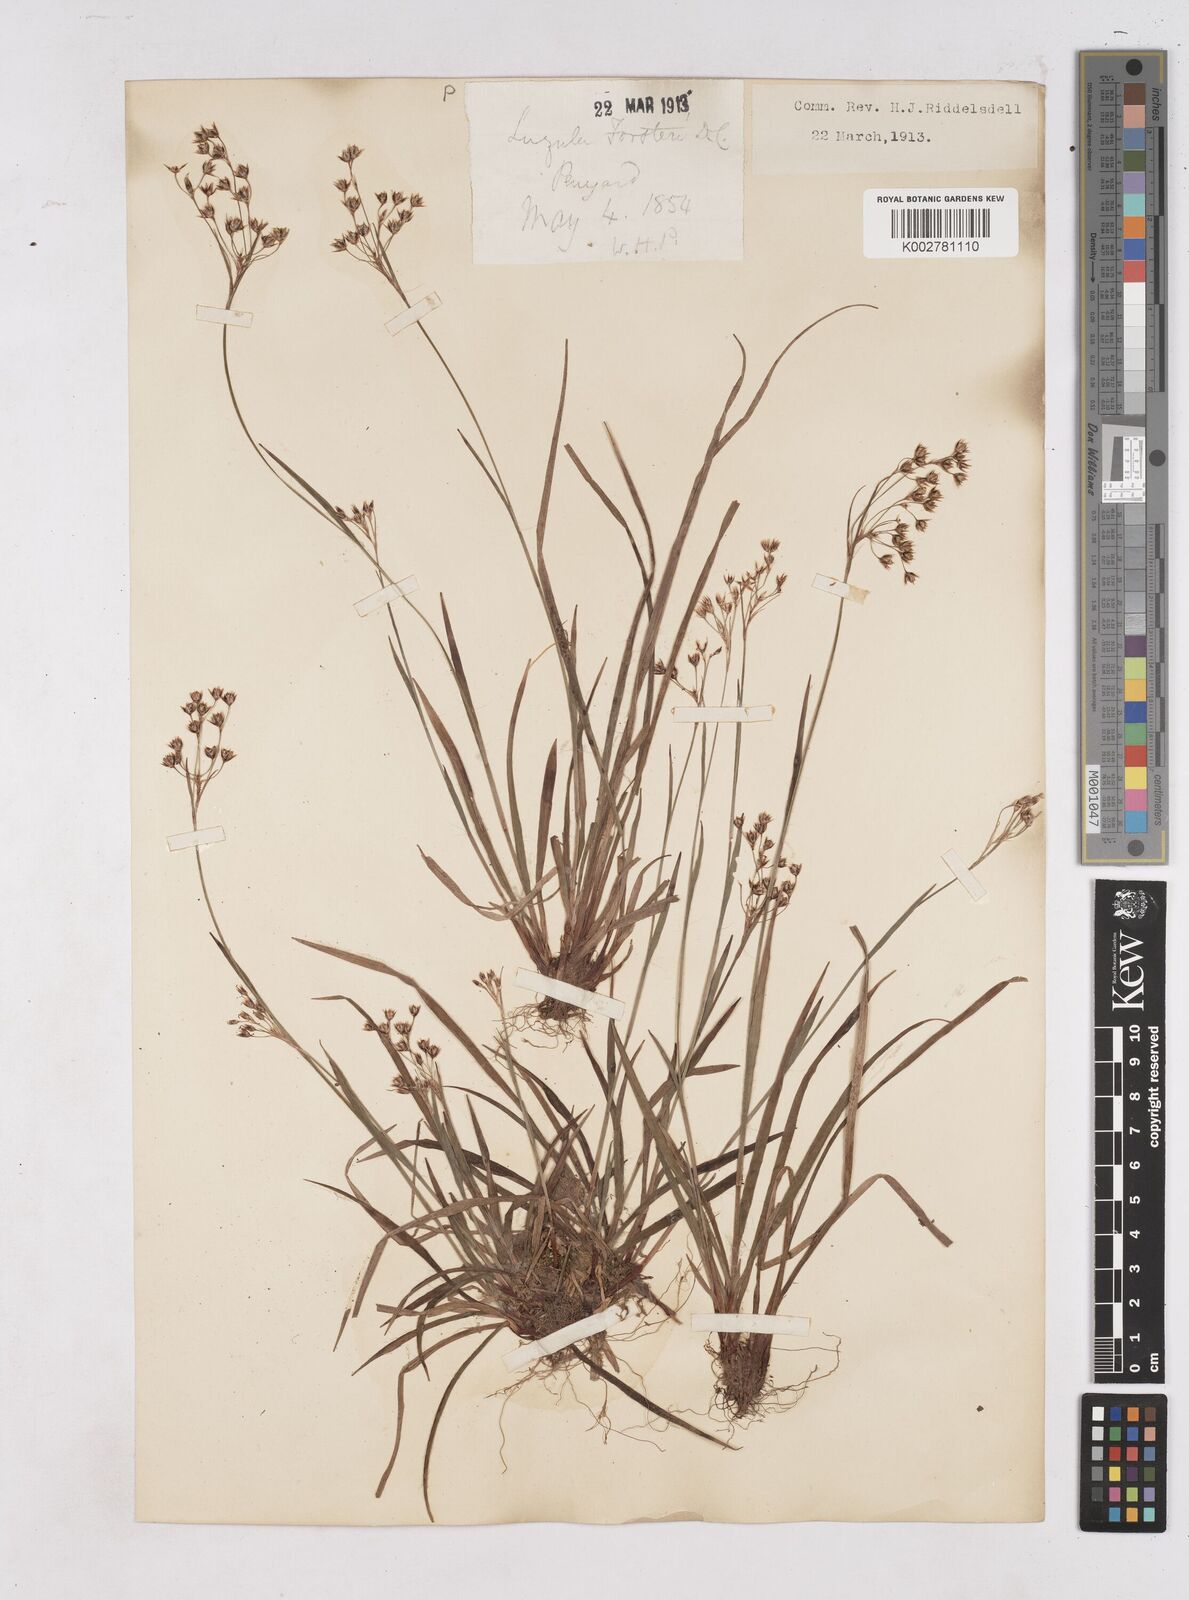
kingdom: Plantae
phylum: Tracheophyta
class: Liliopsida
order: Poales
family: Juncaceae
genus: Luzula
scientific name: Luzula forsteri
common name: Southern wood-rush
